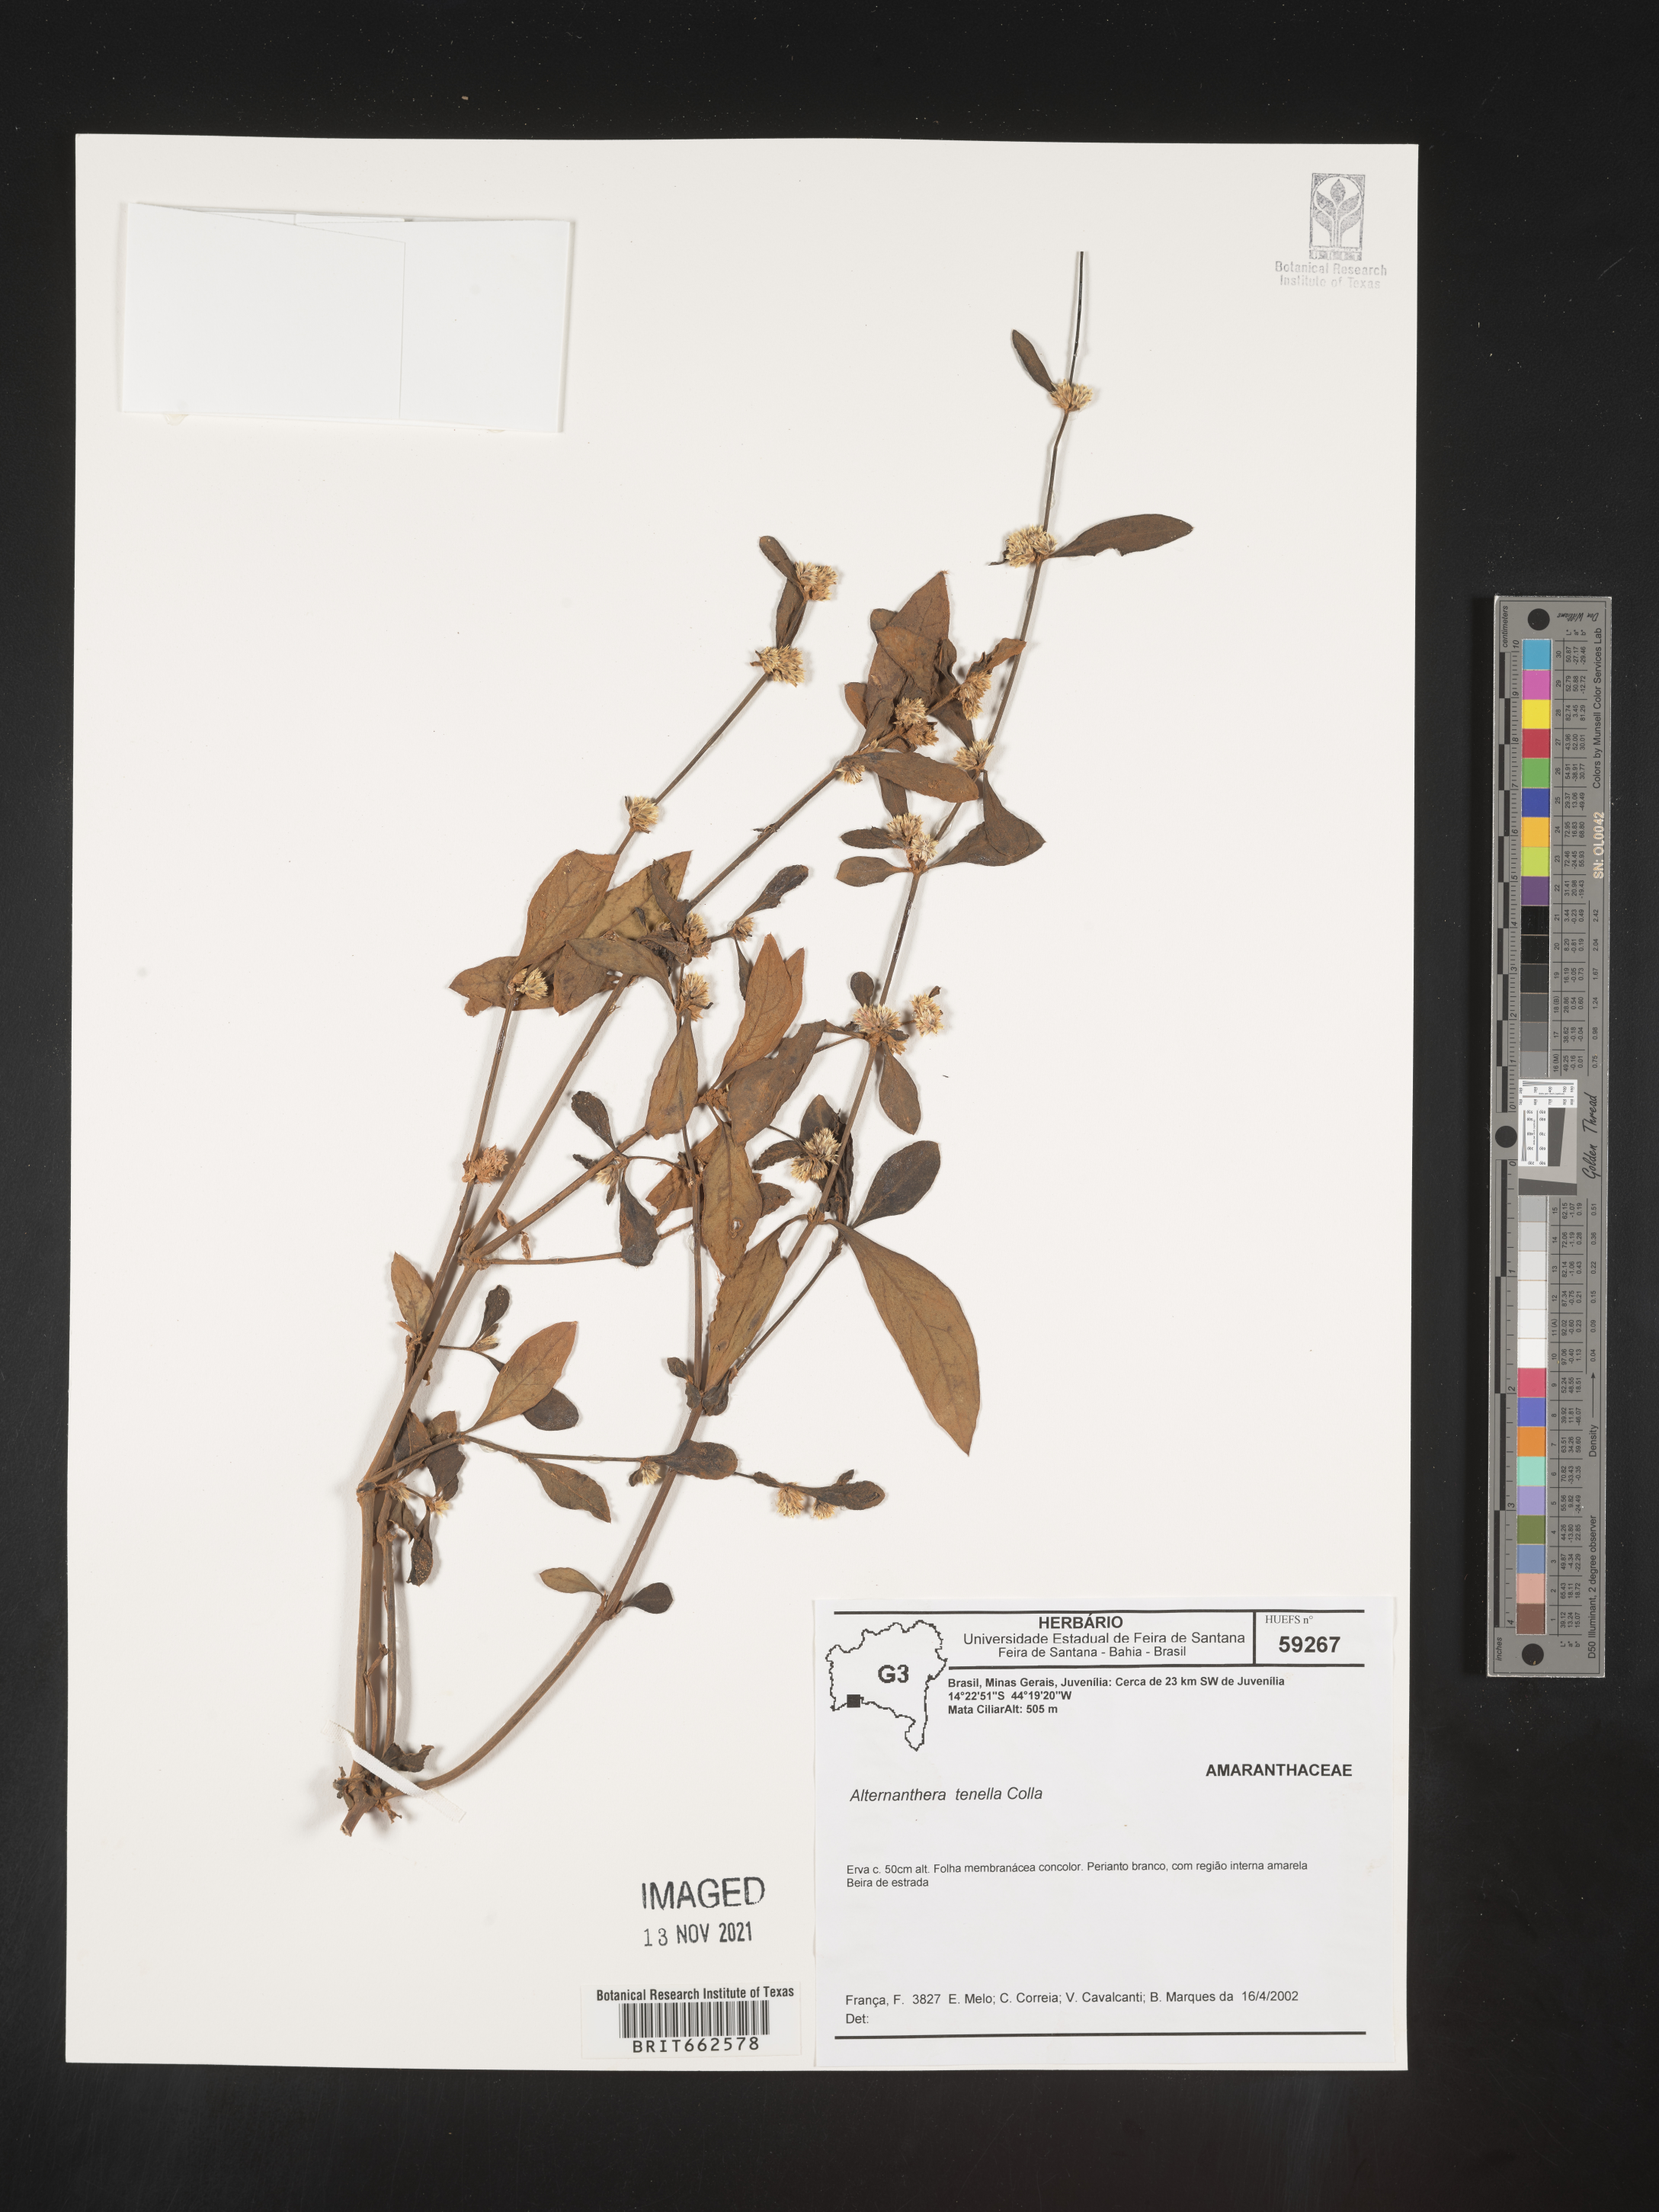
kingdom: Plantae
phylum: Tracheophyta
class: Magnoliopsida
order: Caryophyllales
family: Amaranthaceae
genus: Alternanthera
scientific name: Alternanthera
